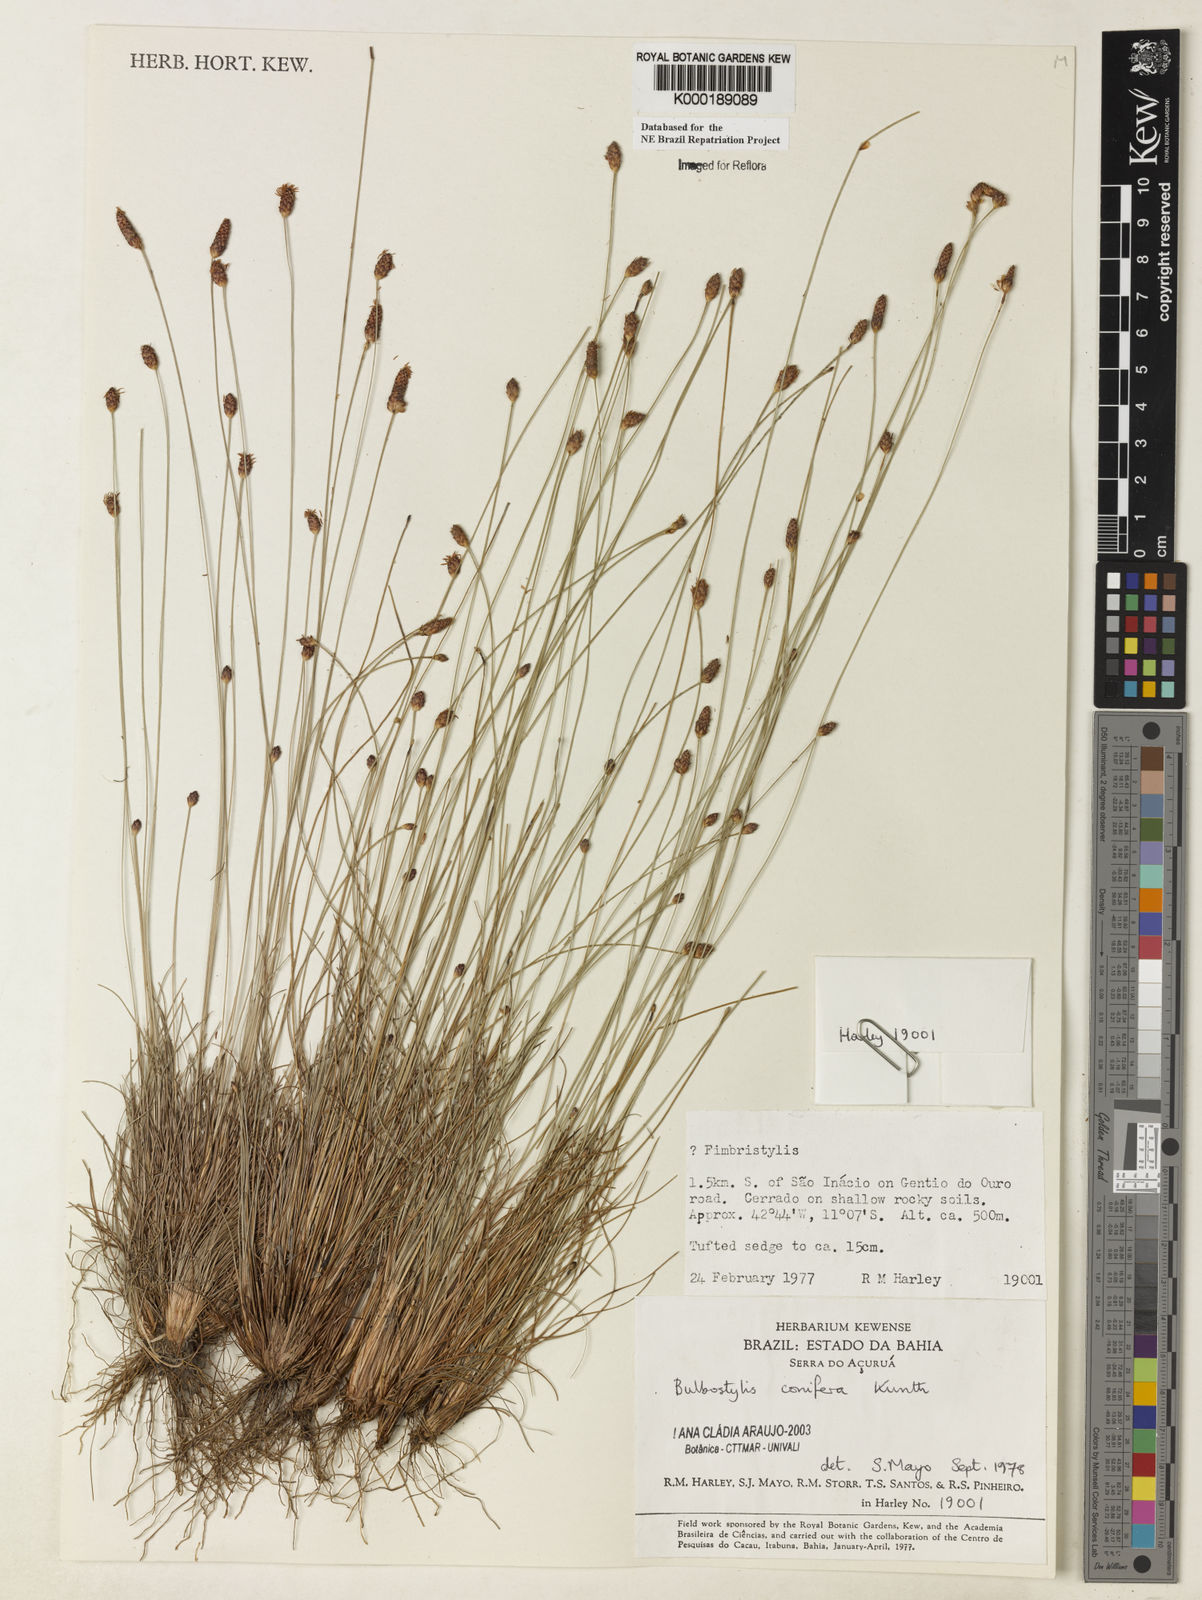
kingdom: Plantae
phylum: Tracheophyta
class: Liliopsida
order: Poales
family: Cyperaceae
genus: Bulbostylis
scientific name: Bulbostylis conifera
